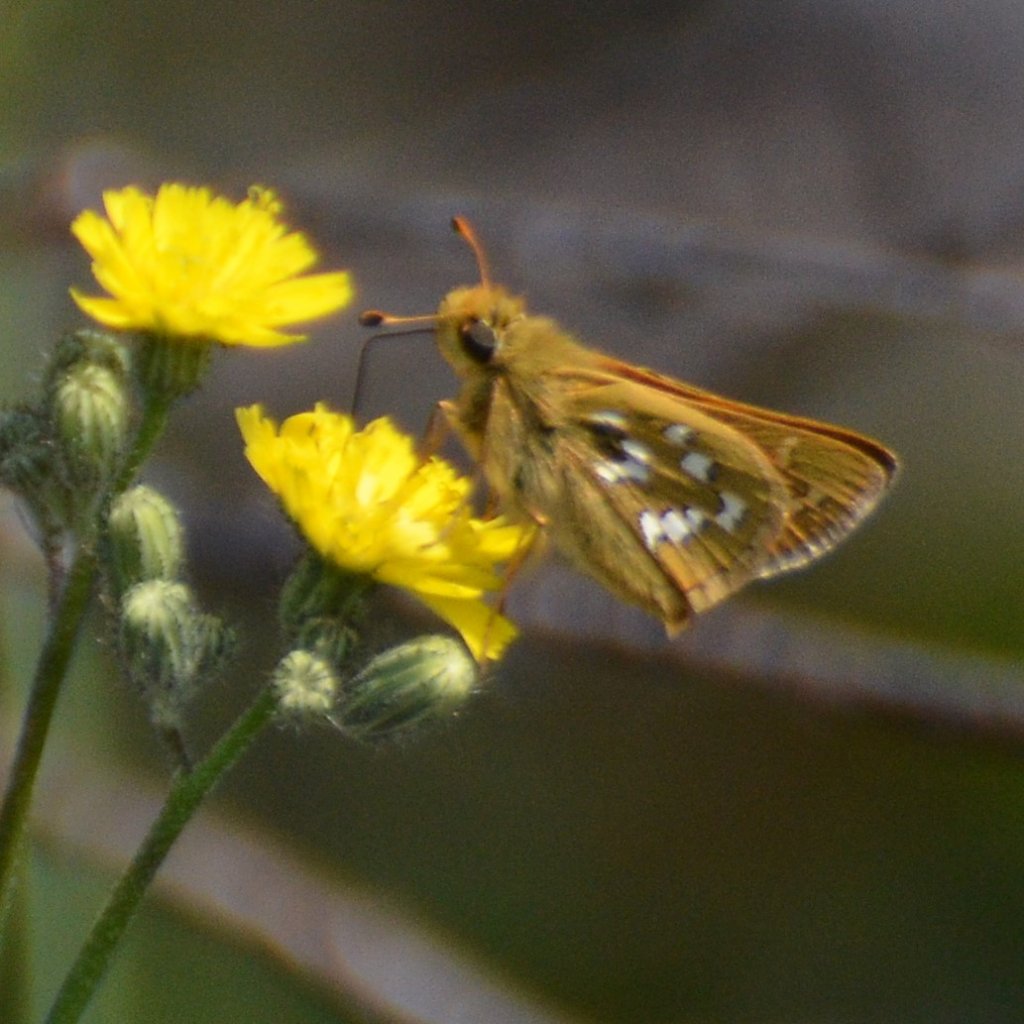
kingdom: Animalia
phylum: Arthropoda
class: Insecta
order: Lepidoptera
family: Hesperiidae
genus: Hesperia
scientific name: Hesperia comma
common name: Common Branded Skipper
